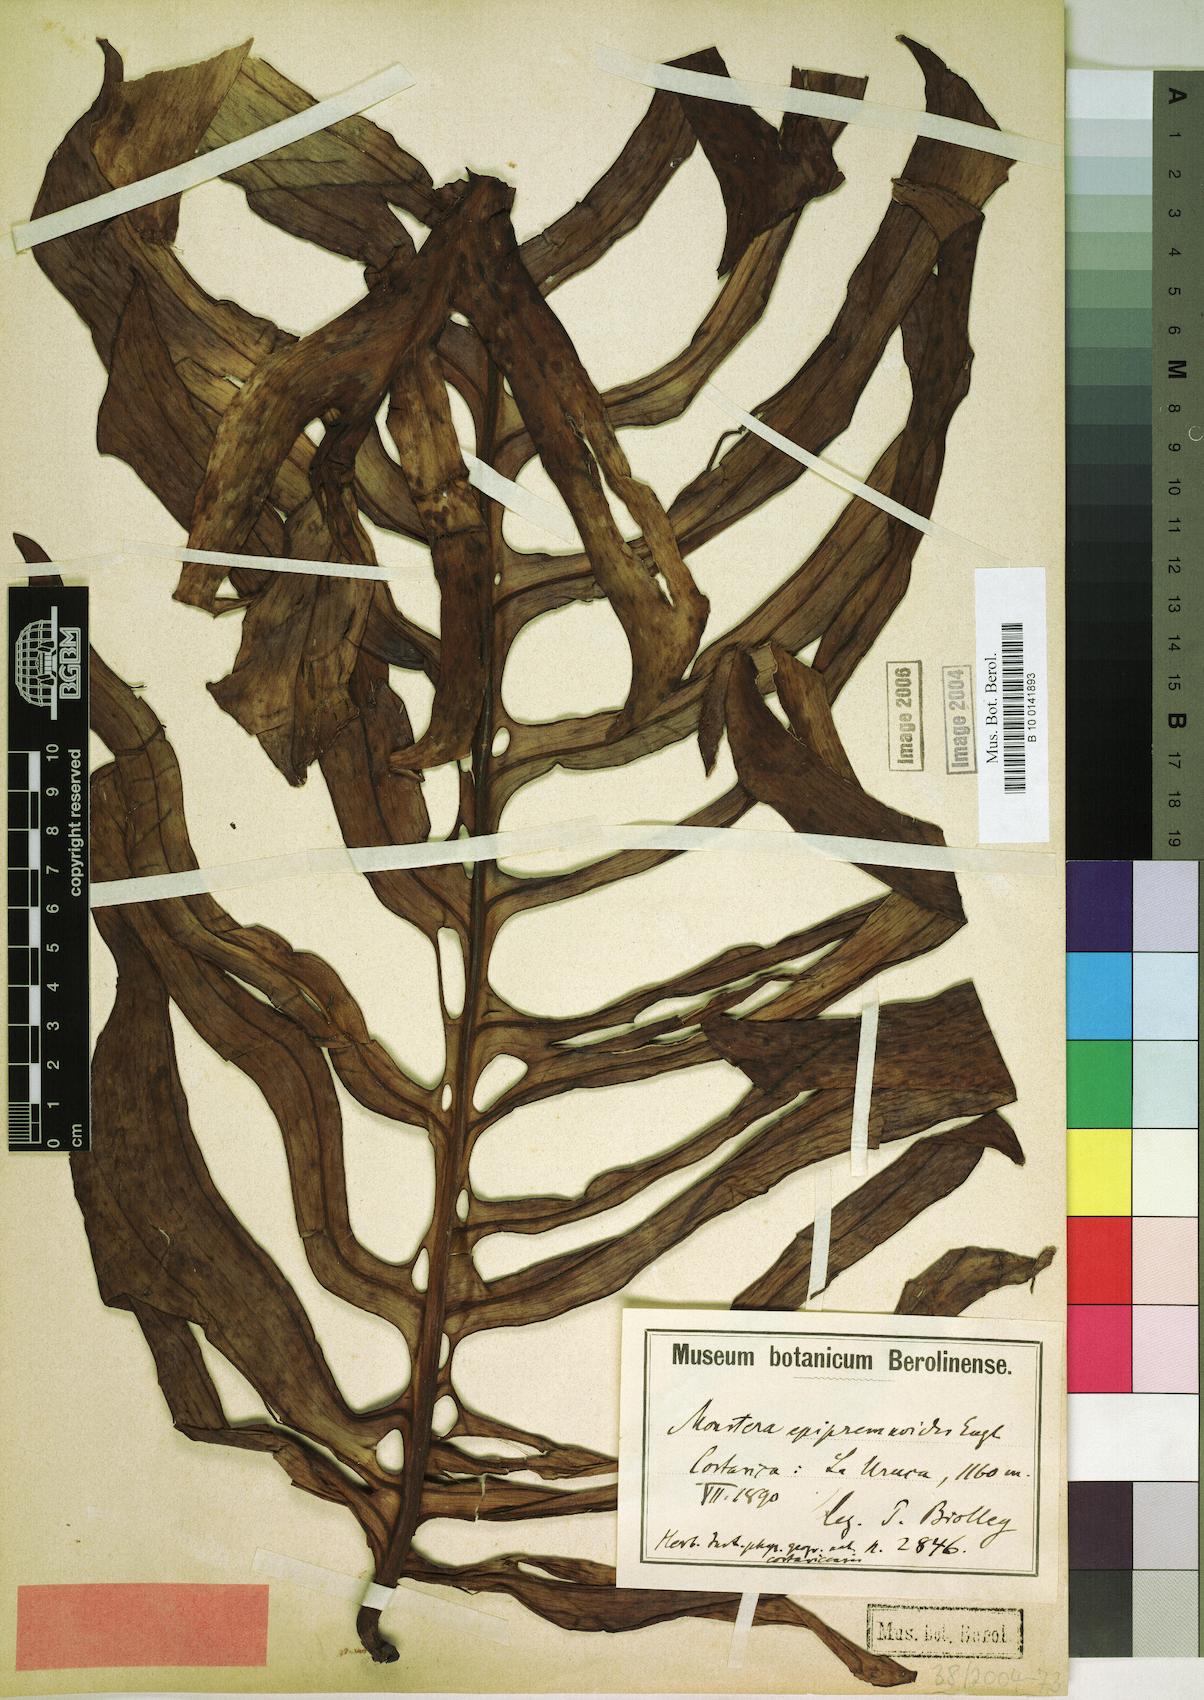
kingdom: Plantae
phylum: Tracheophyta
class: Liliopsida
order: Alismatales
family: Araceae
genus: Monstera
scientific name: Monstera epipremnoides
